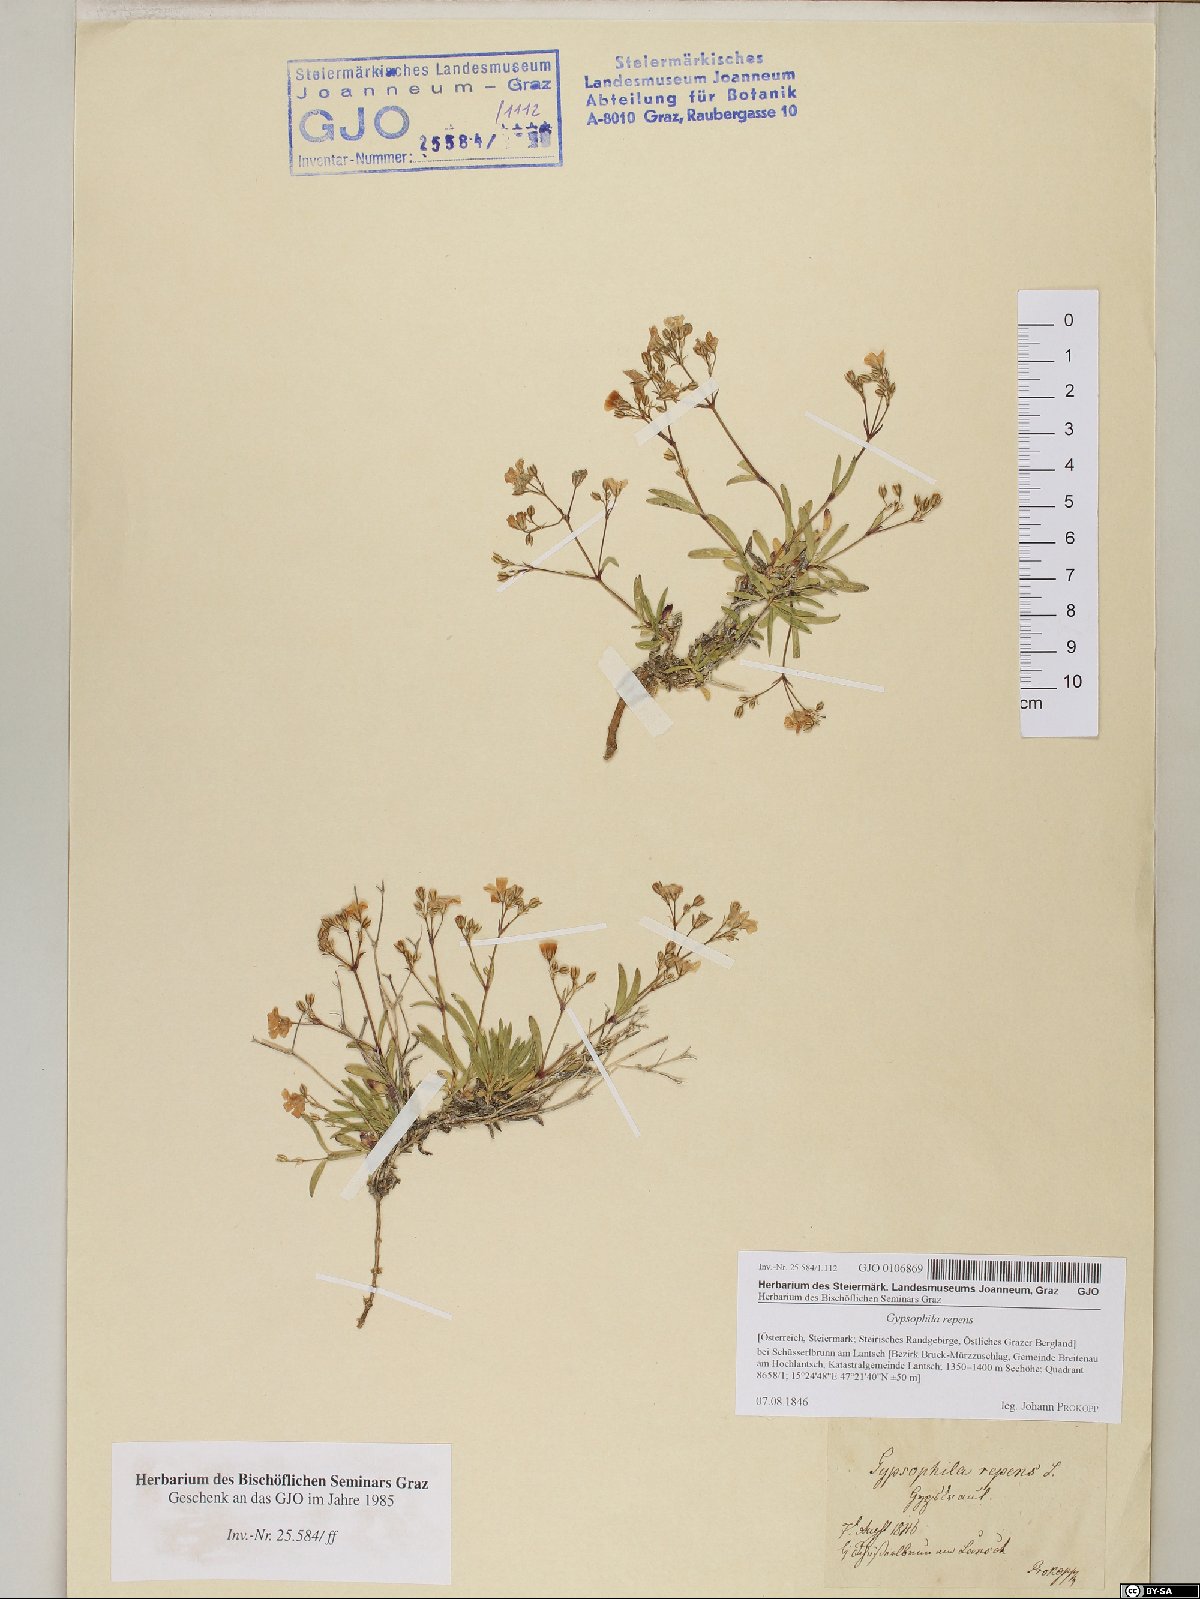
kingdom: Plantae
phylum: Tracheophyta
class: Magnoliopsida
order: Caryophyllales
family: Caryophyllaceae
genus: Gypsophila
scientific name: Gypsophila repens
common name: Creeping baby's-breath
